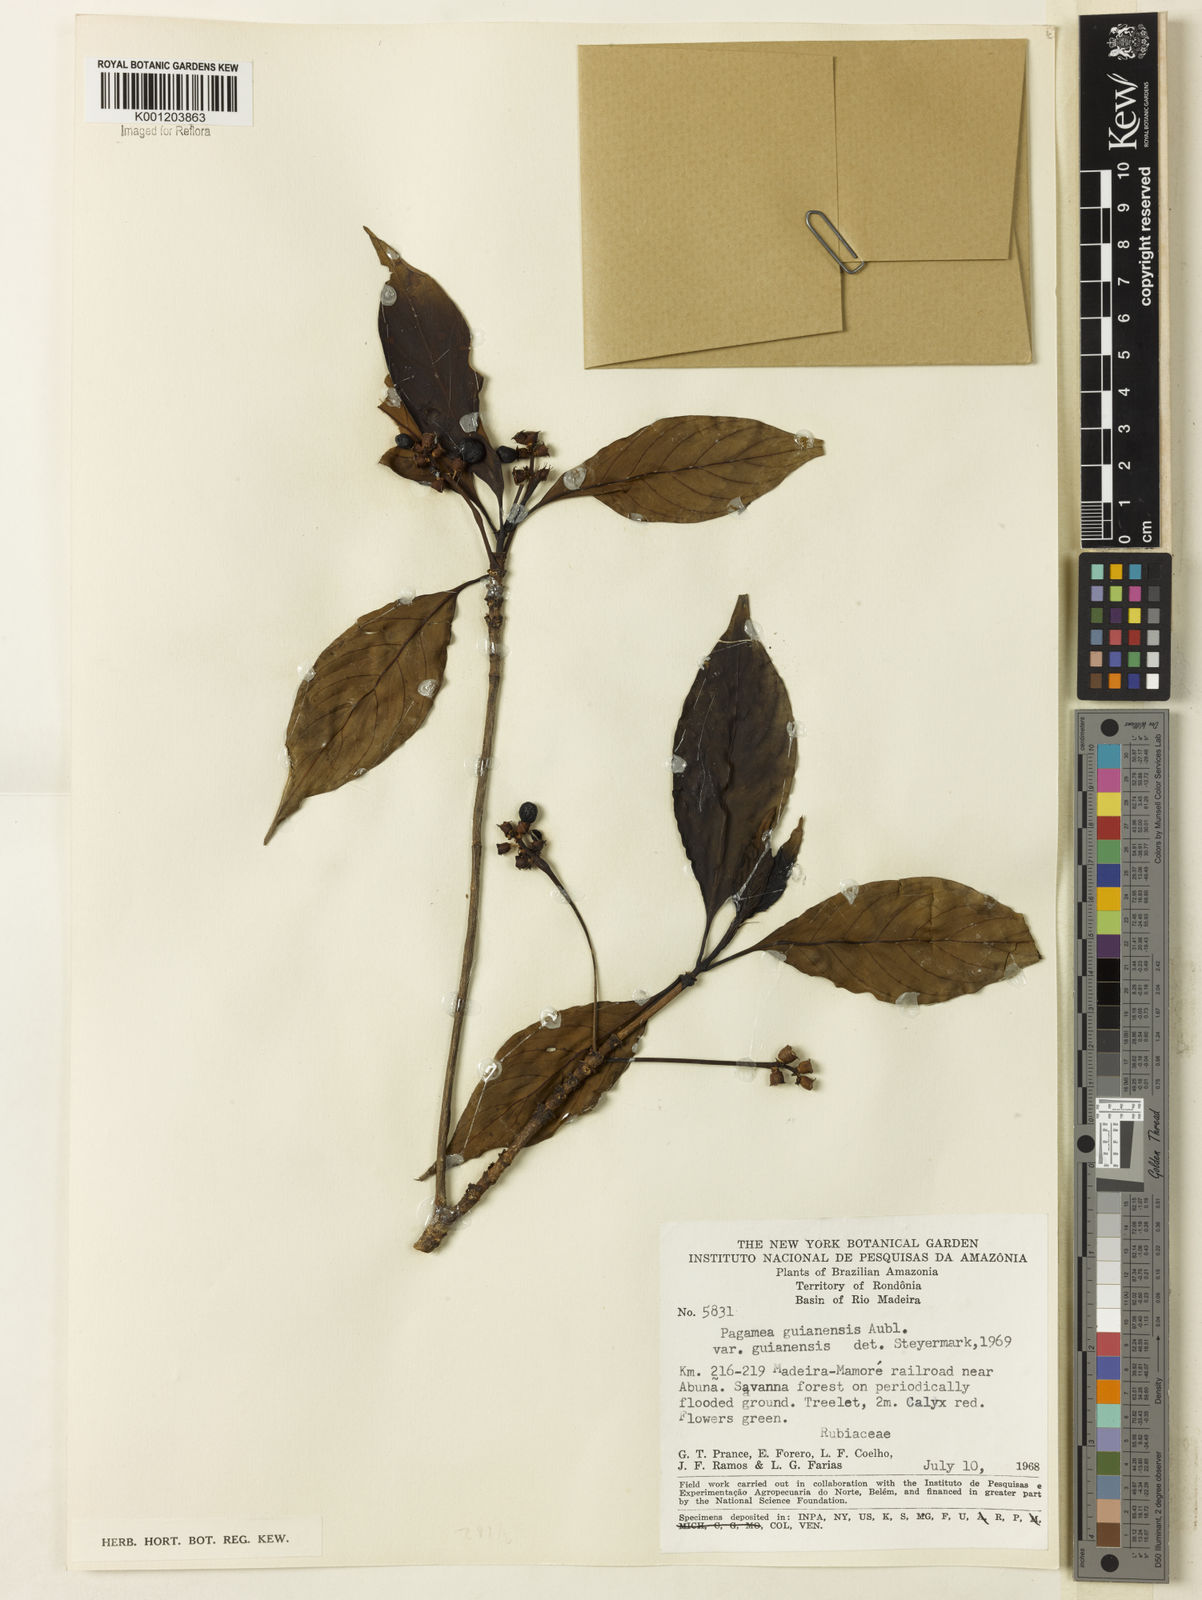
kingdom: Plantae
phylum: Tracheophyta
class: Magnoliopsida
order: Gentianales
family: Rubiaceae
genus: Pagamea
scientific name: Pagamea guianensis
